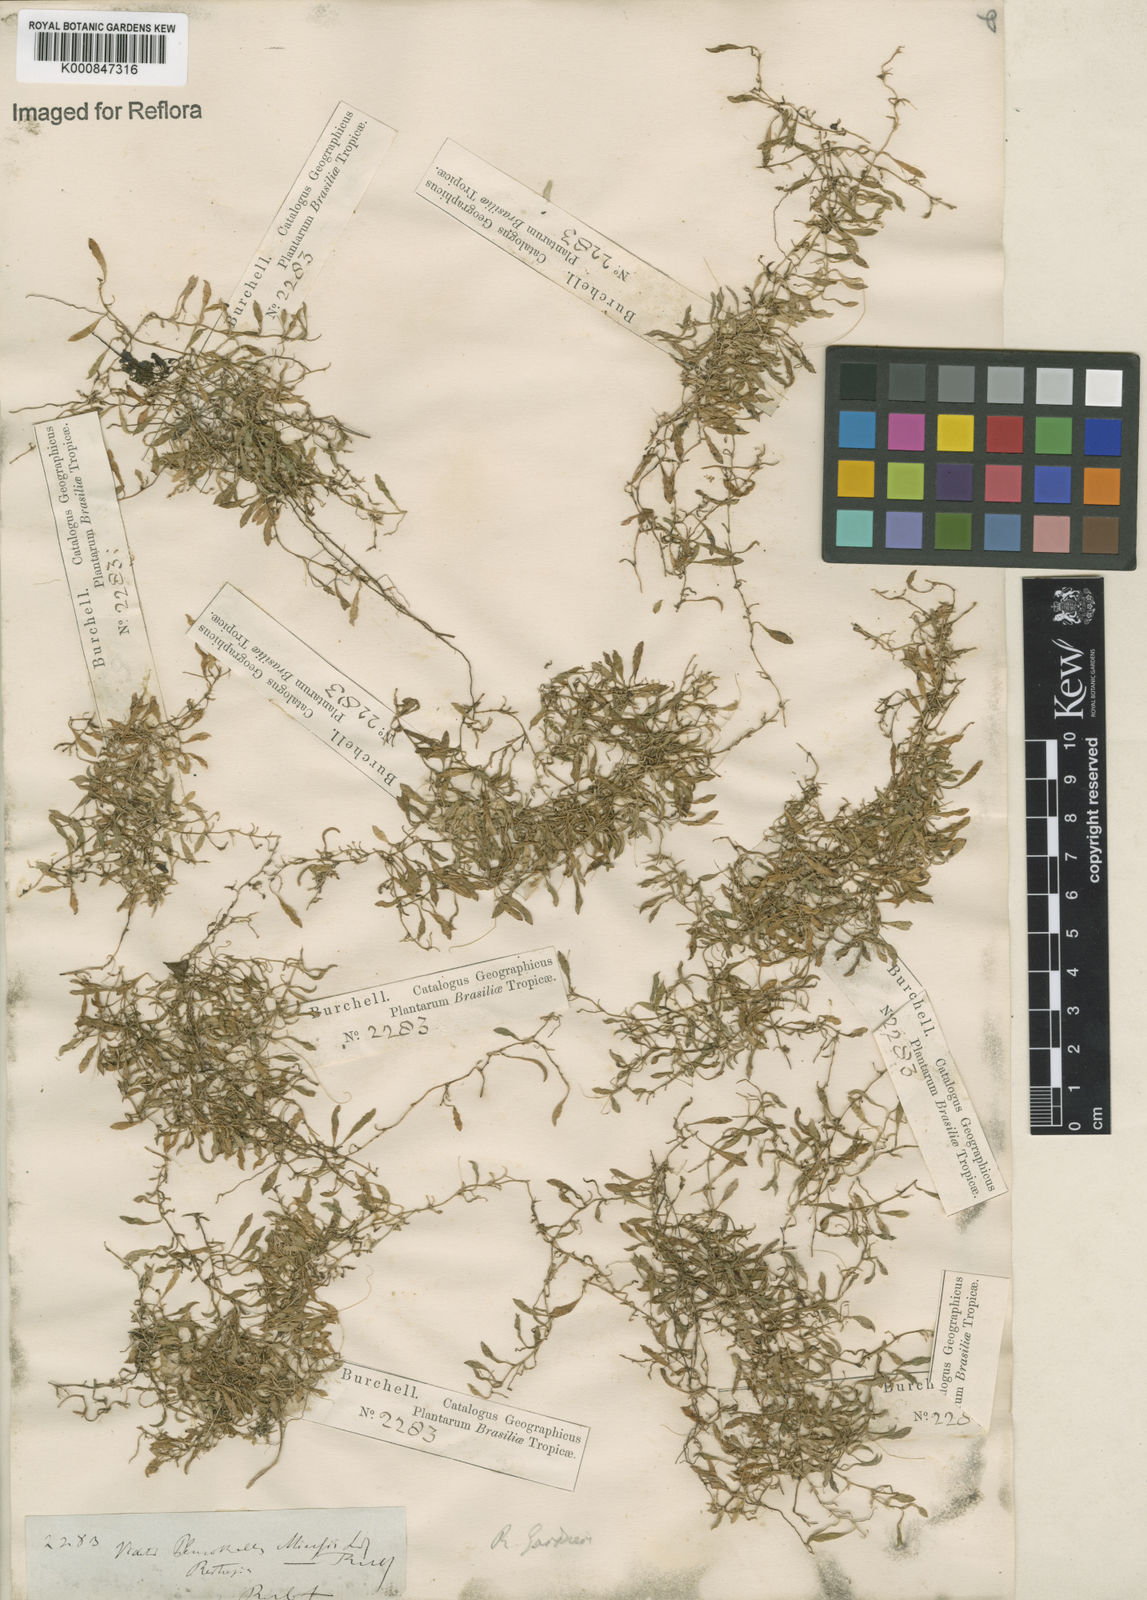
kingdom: Plantae
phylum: Tracheophyta
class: Liliopsida
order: Asparagales
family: Orchidaceae
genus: Barbosella
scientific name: Barbosella miersii
